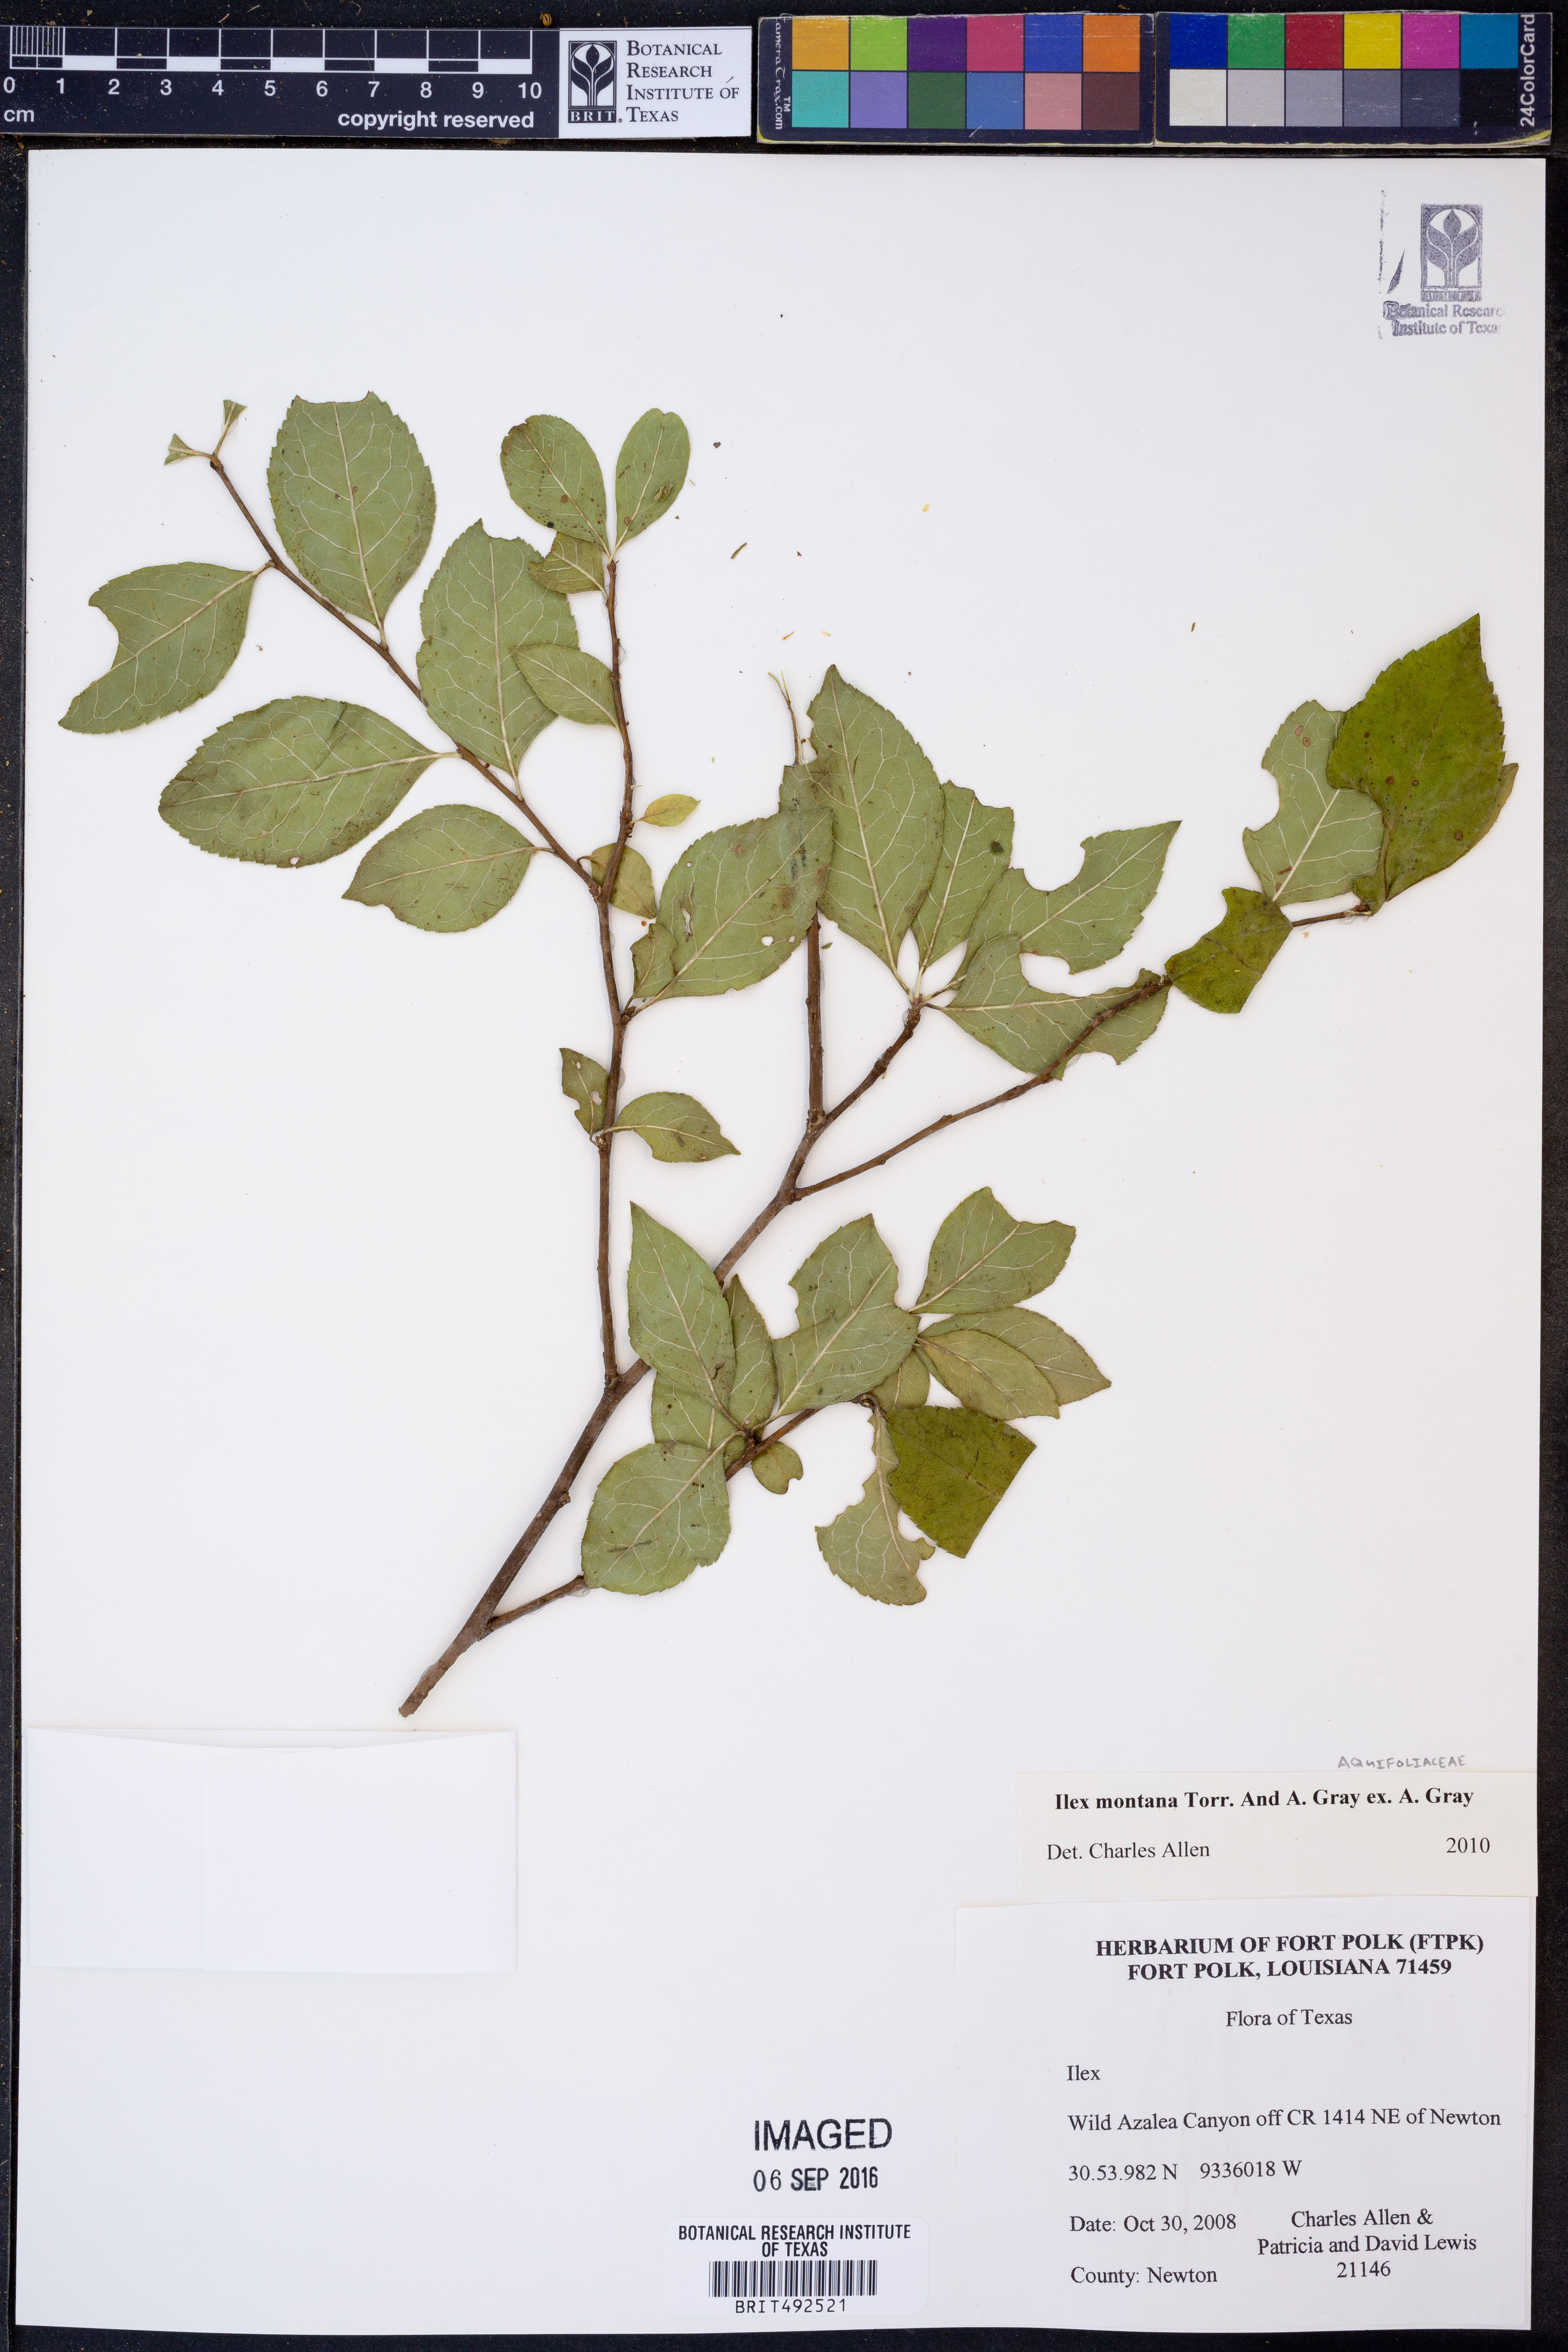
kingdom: Plantae
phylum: Tracheophyta
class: Magnoliopsida
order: Aquifoliales
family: Aquifoliaceae
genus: Ilex
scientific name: Ilex montana
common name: Mountain winterberry
